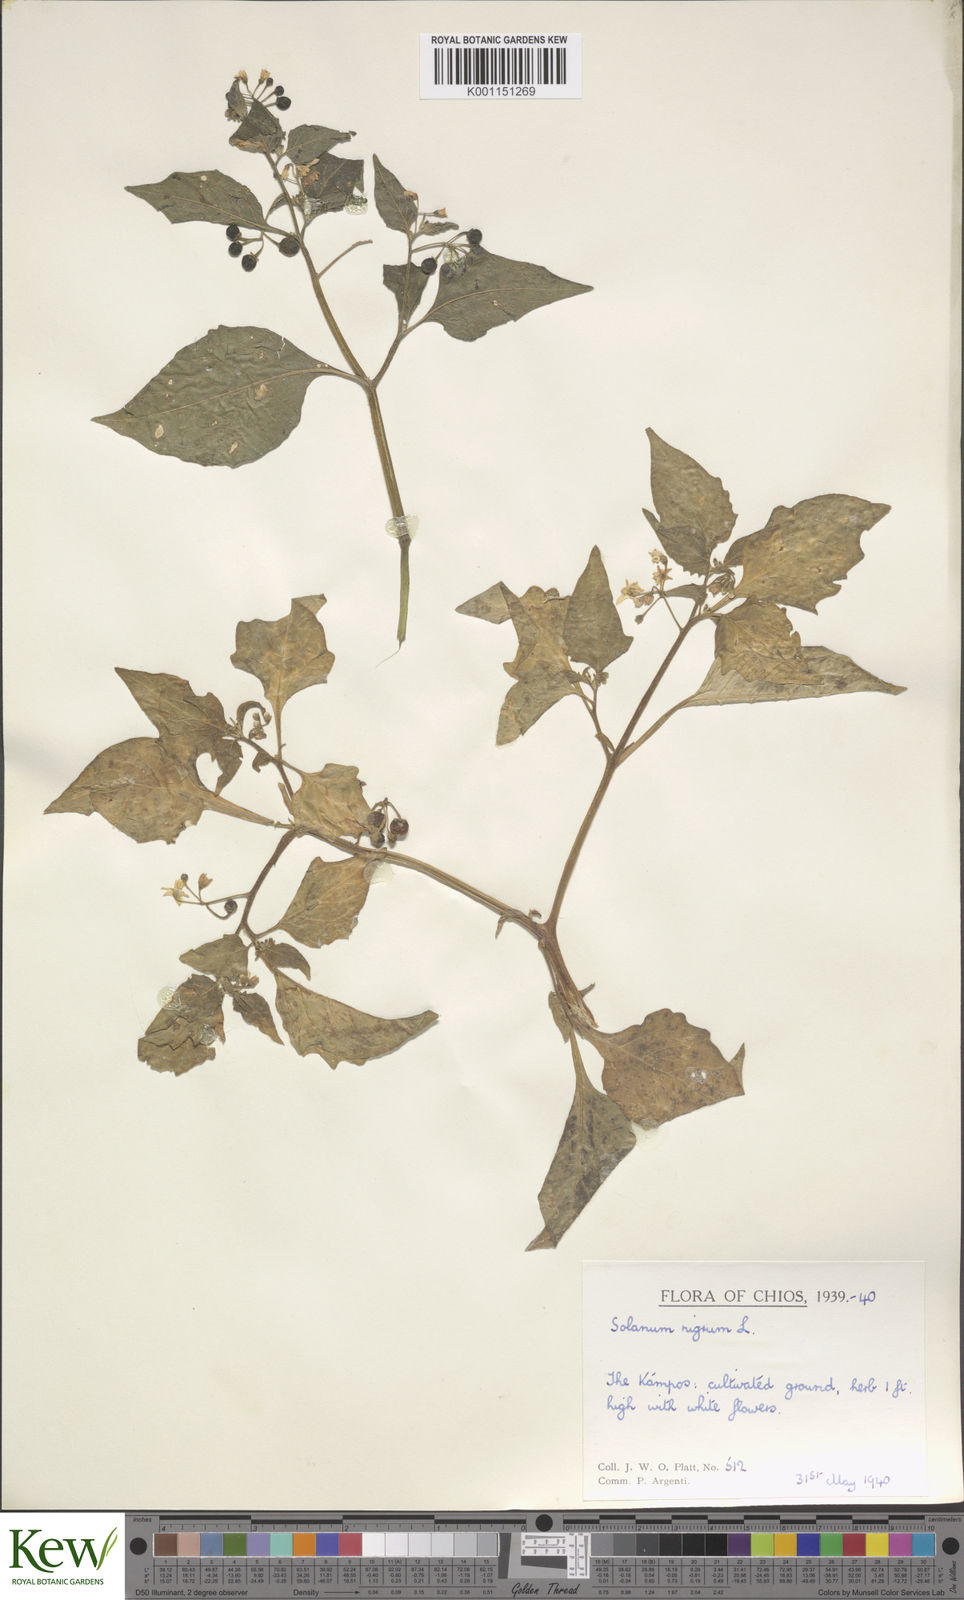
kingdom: Plantae
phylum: Tracheophyta
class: Magnoliopsida
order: Solanales
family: Solanaceae
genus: Solanum
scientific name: Solanum nigrum
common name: Black nightshade
